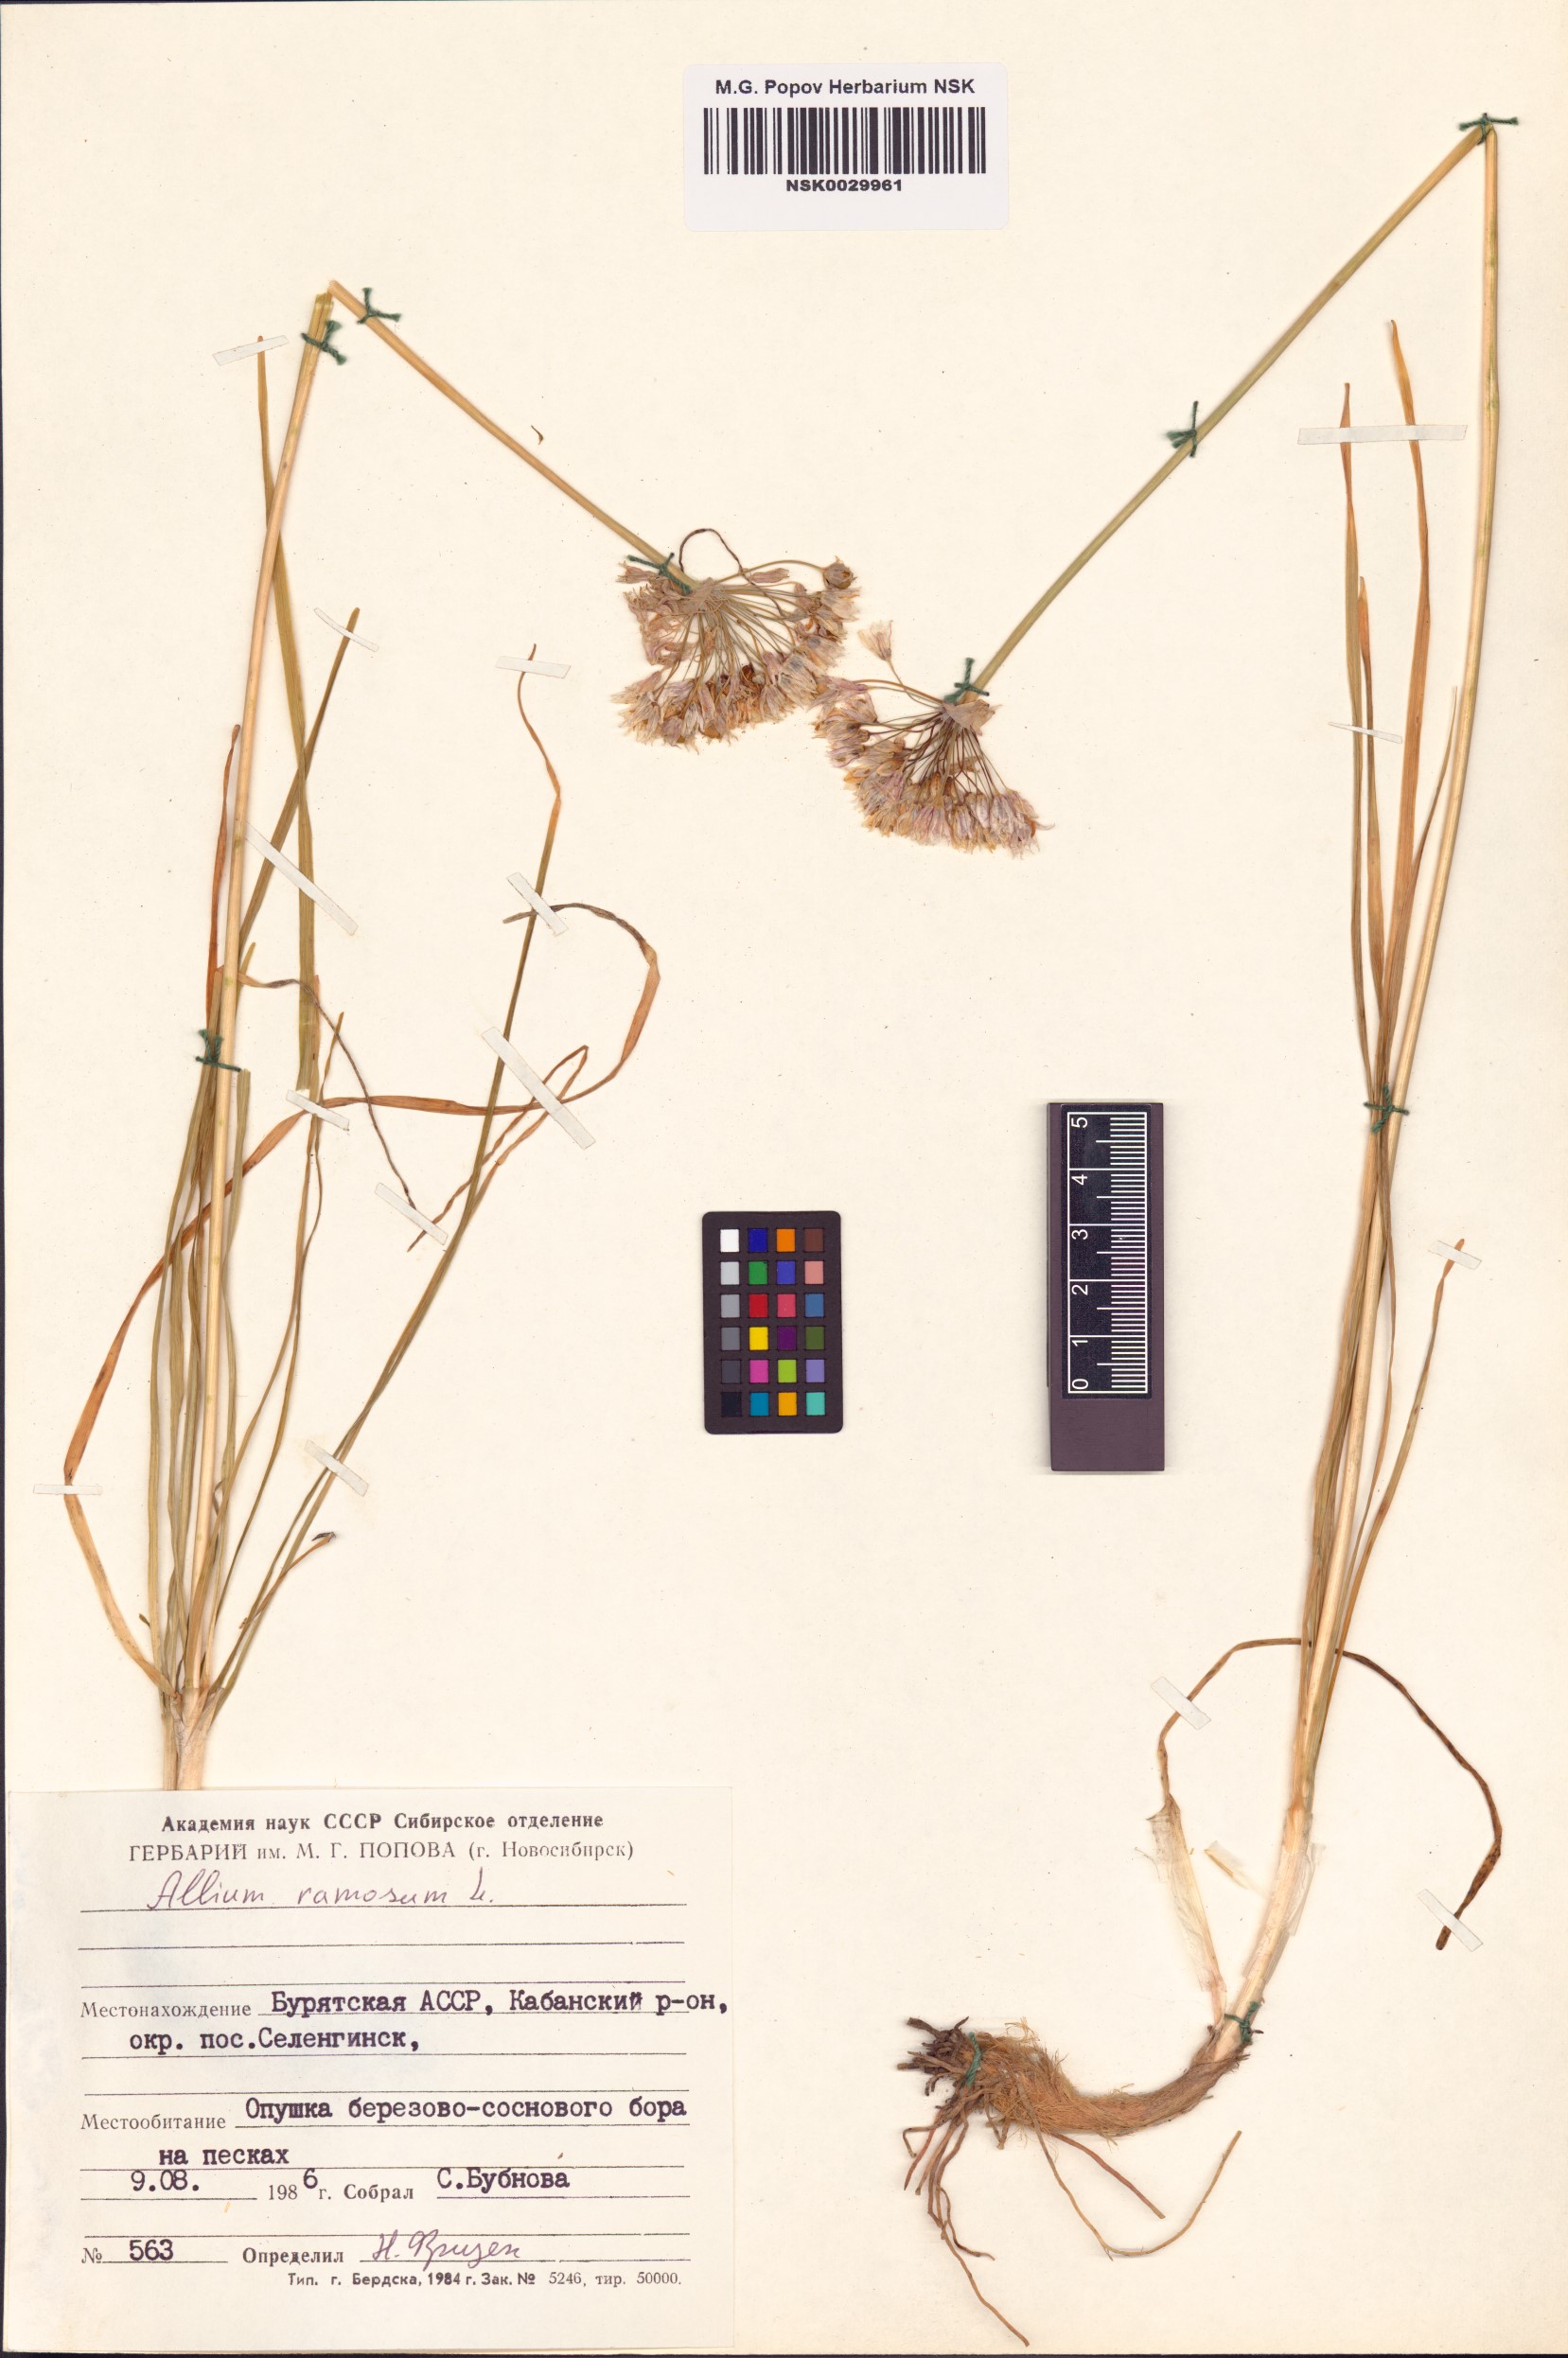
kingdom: Plantae
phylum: Tracheophyta
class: Liliopsida
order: Asparagales
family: Amaryllidaceae
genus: Allium
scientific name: Allium ramosum
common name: Fragrant garlic
